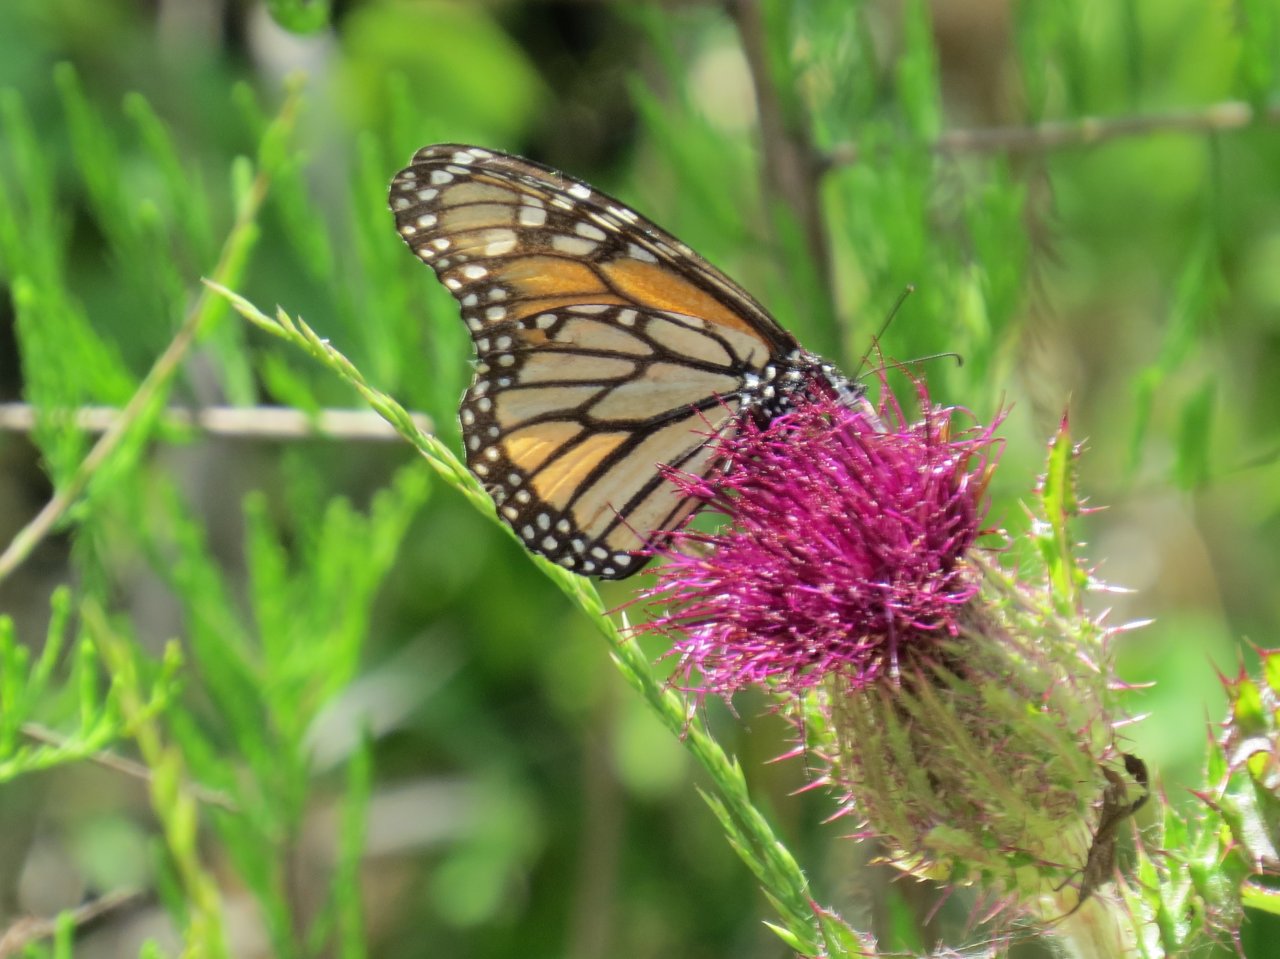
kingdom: Animalia
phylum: Arthropoda
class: Insecta
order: Lepidoptera
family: Nymphalidae
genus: Danaus
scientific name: Danaus plexippus
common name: Monarch
